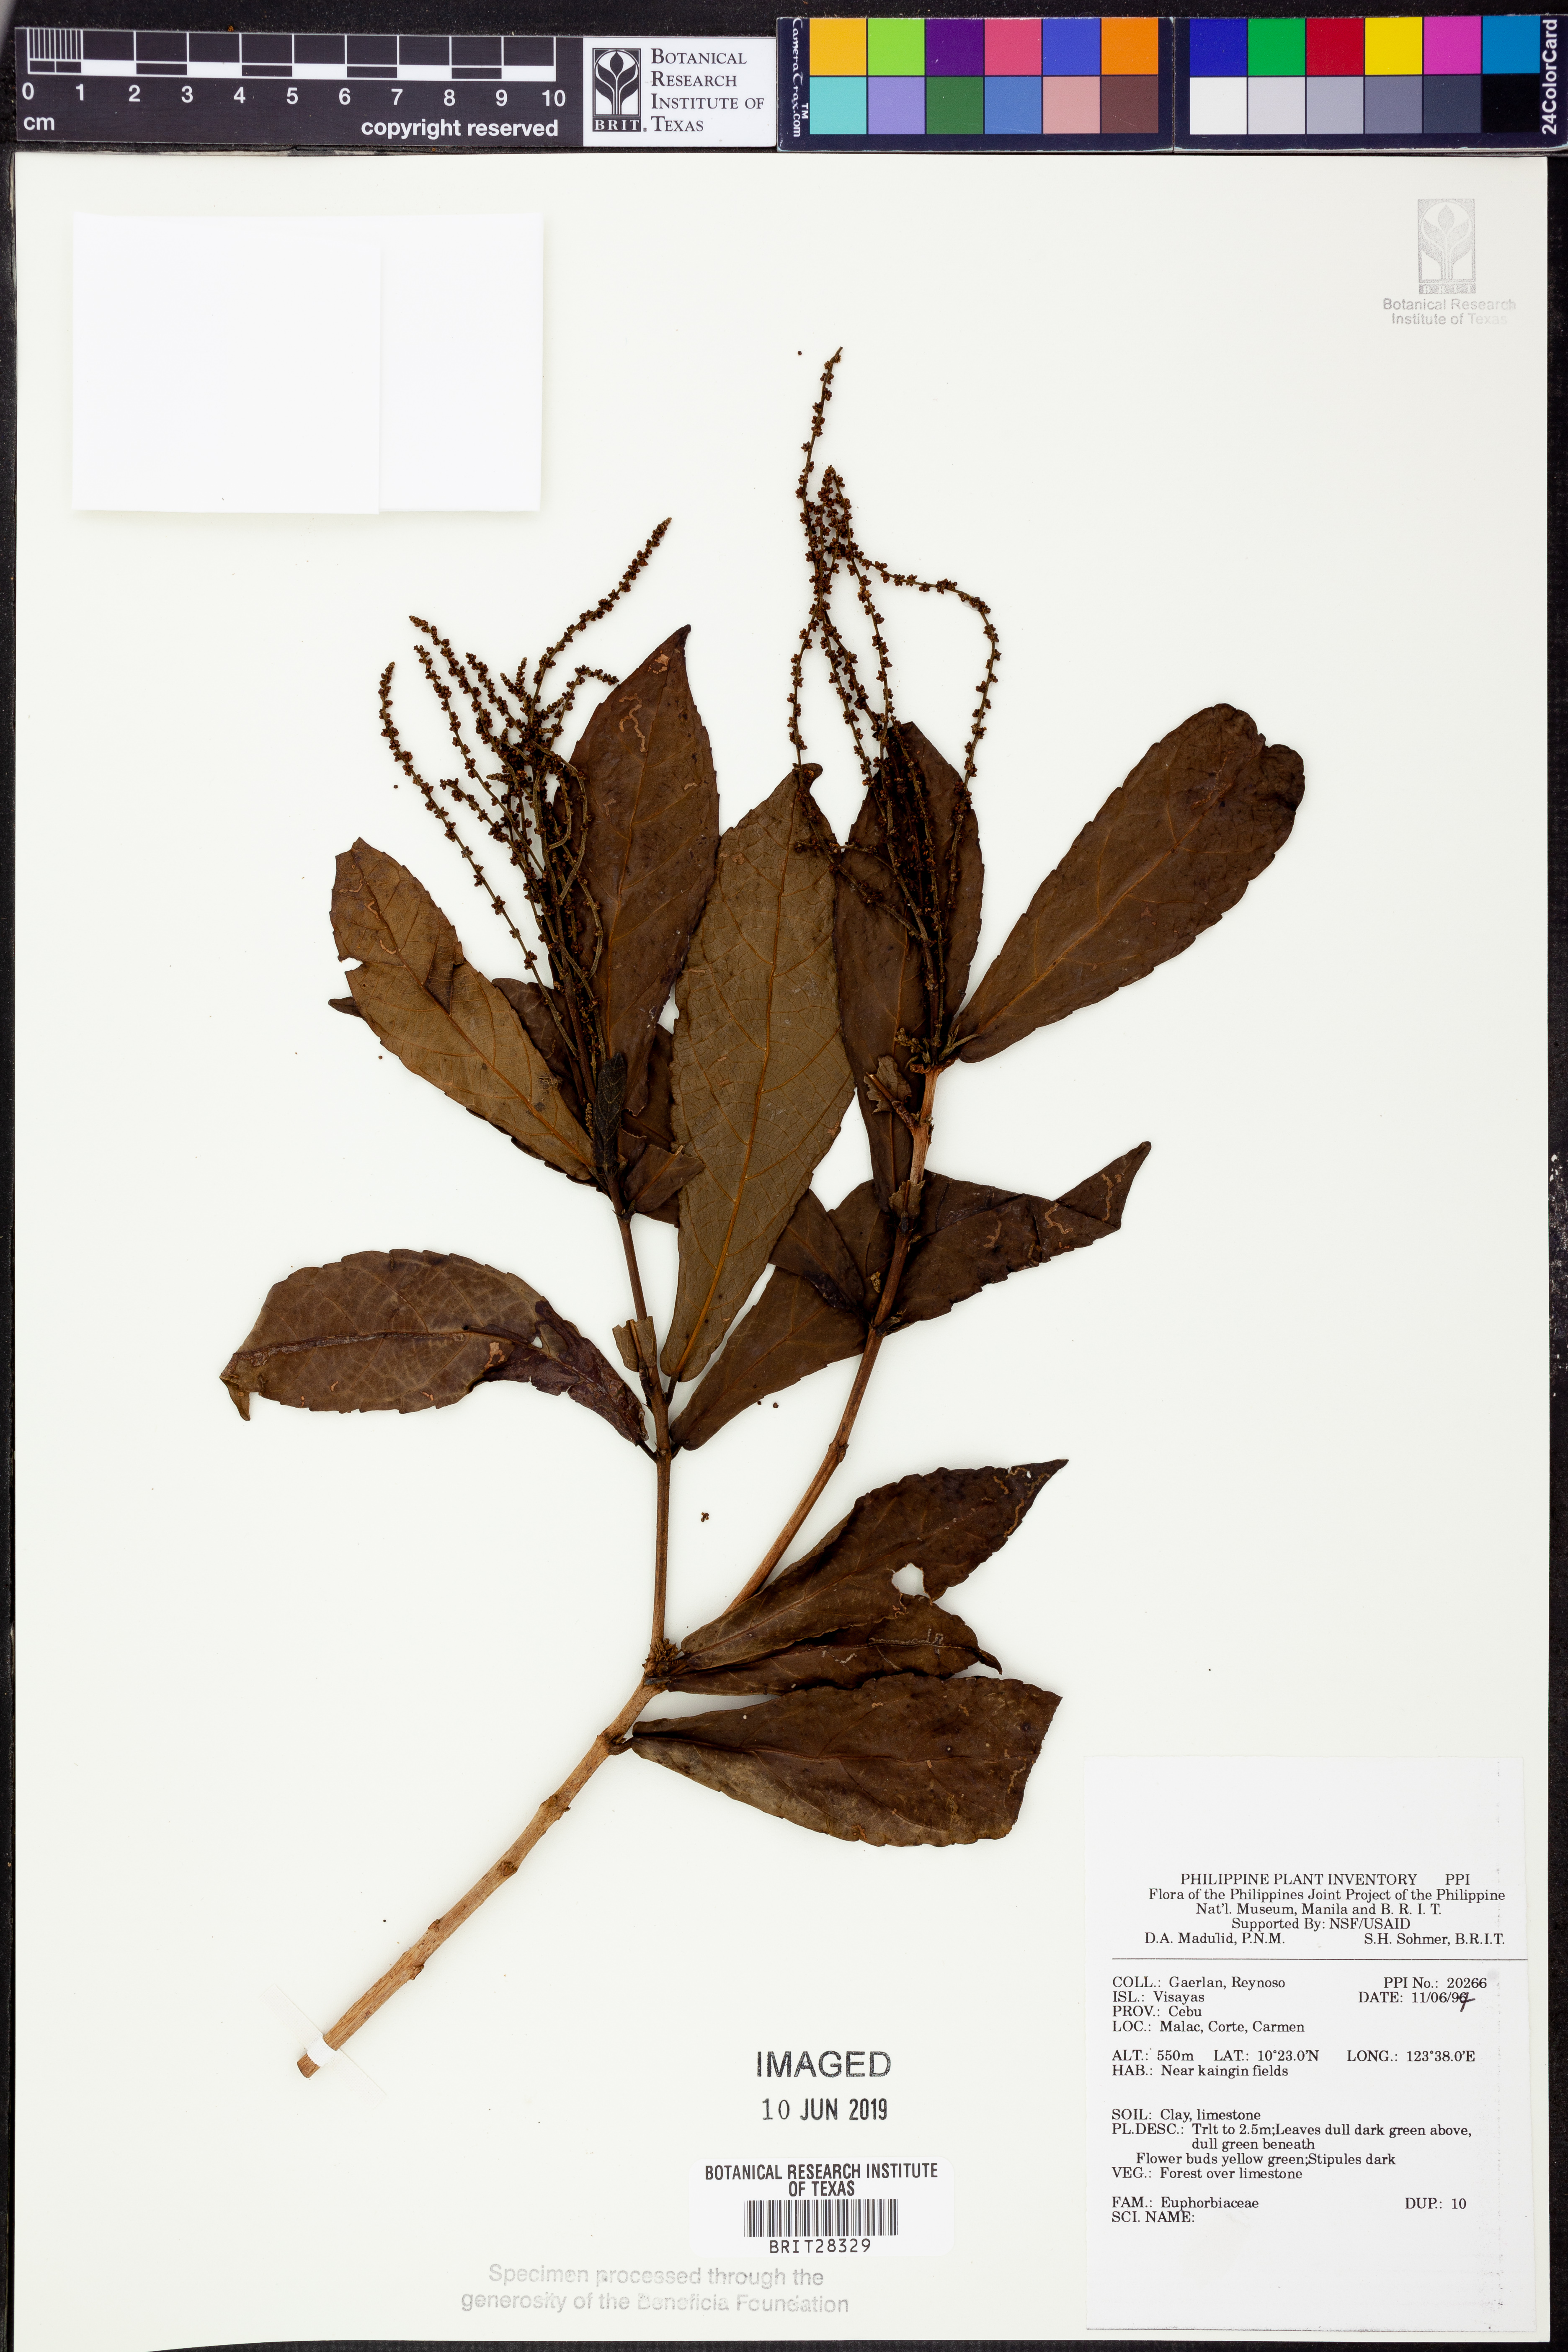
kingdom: Plantae
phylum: Tracheophyta
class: Magnoliopsida
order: Malpighiales
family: Euphorbiaceae
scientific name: Euphorbiaceae
